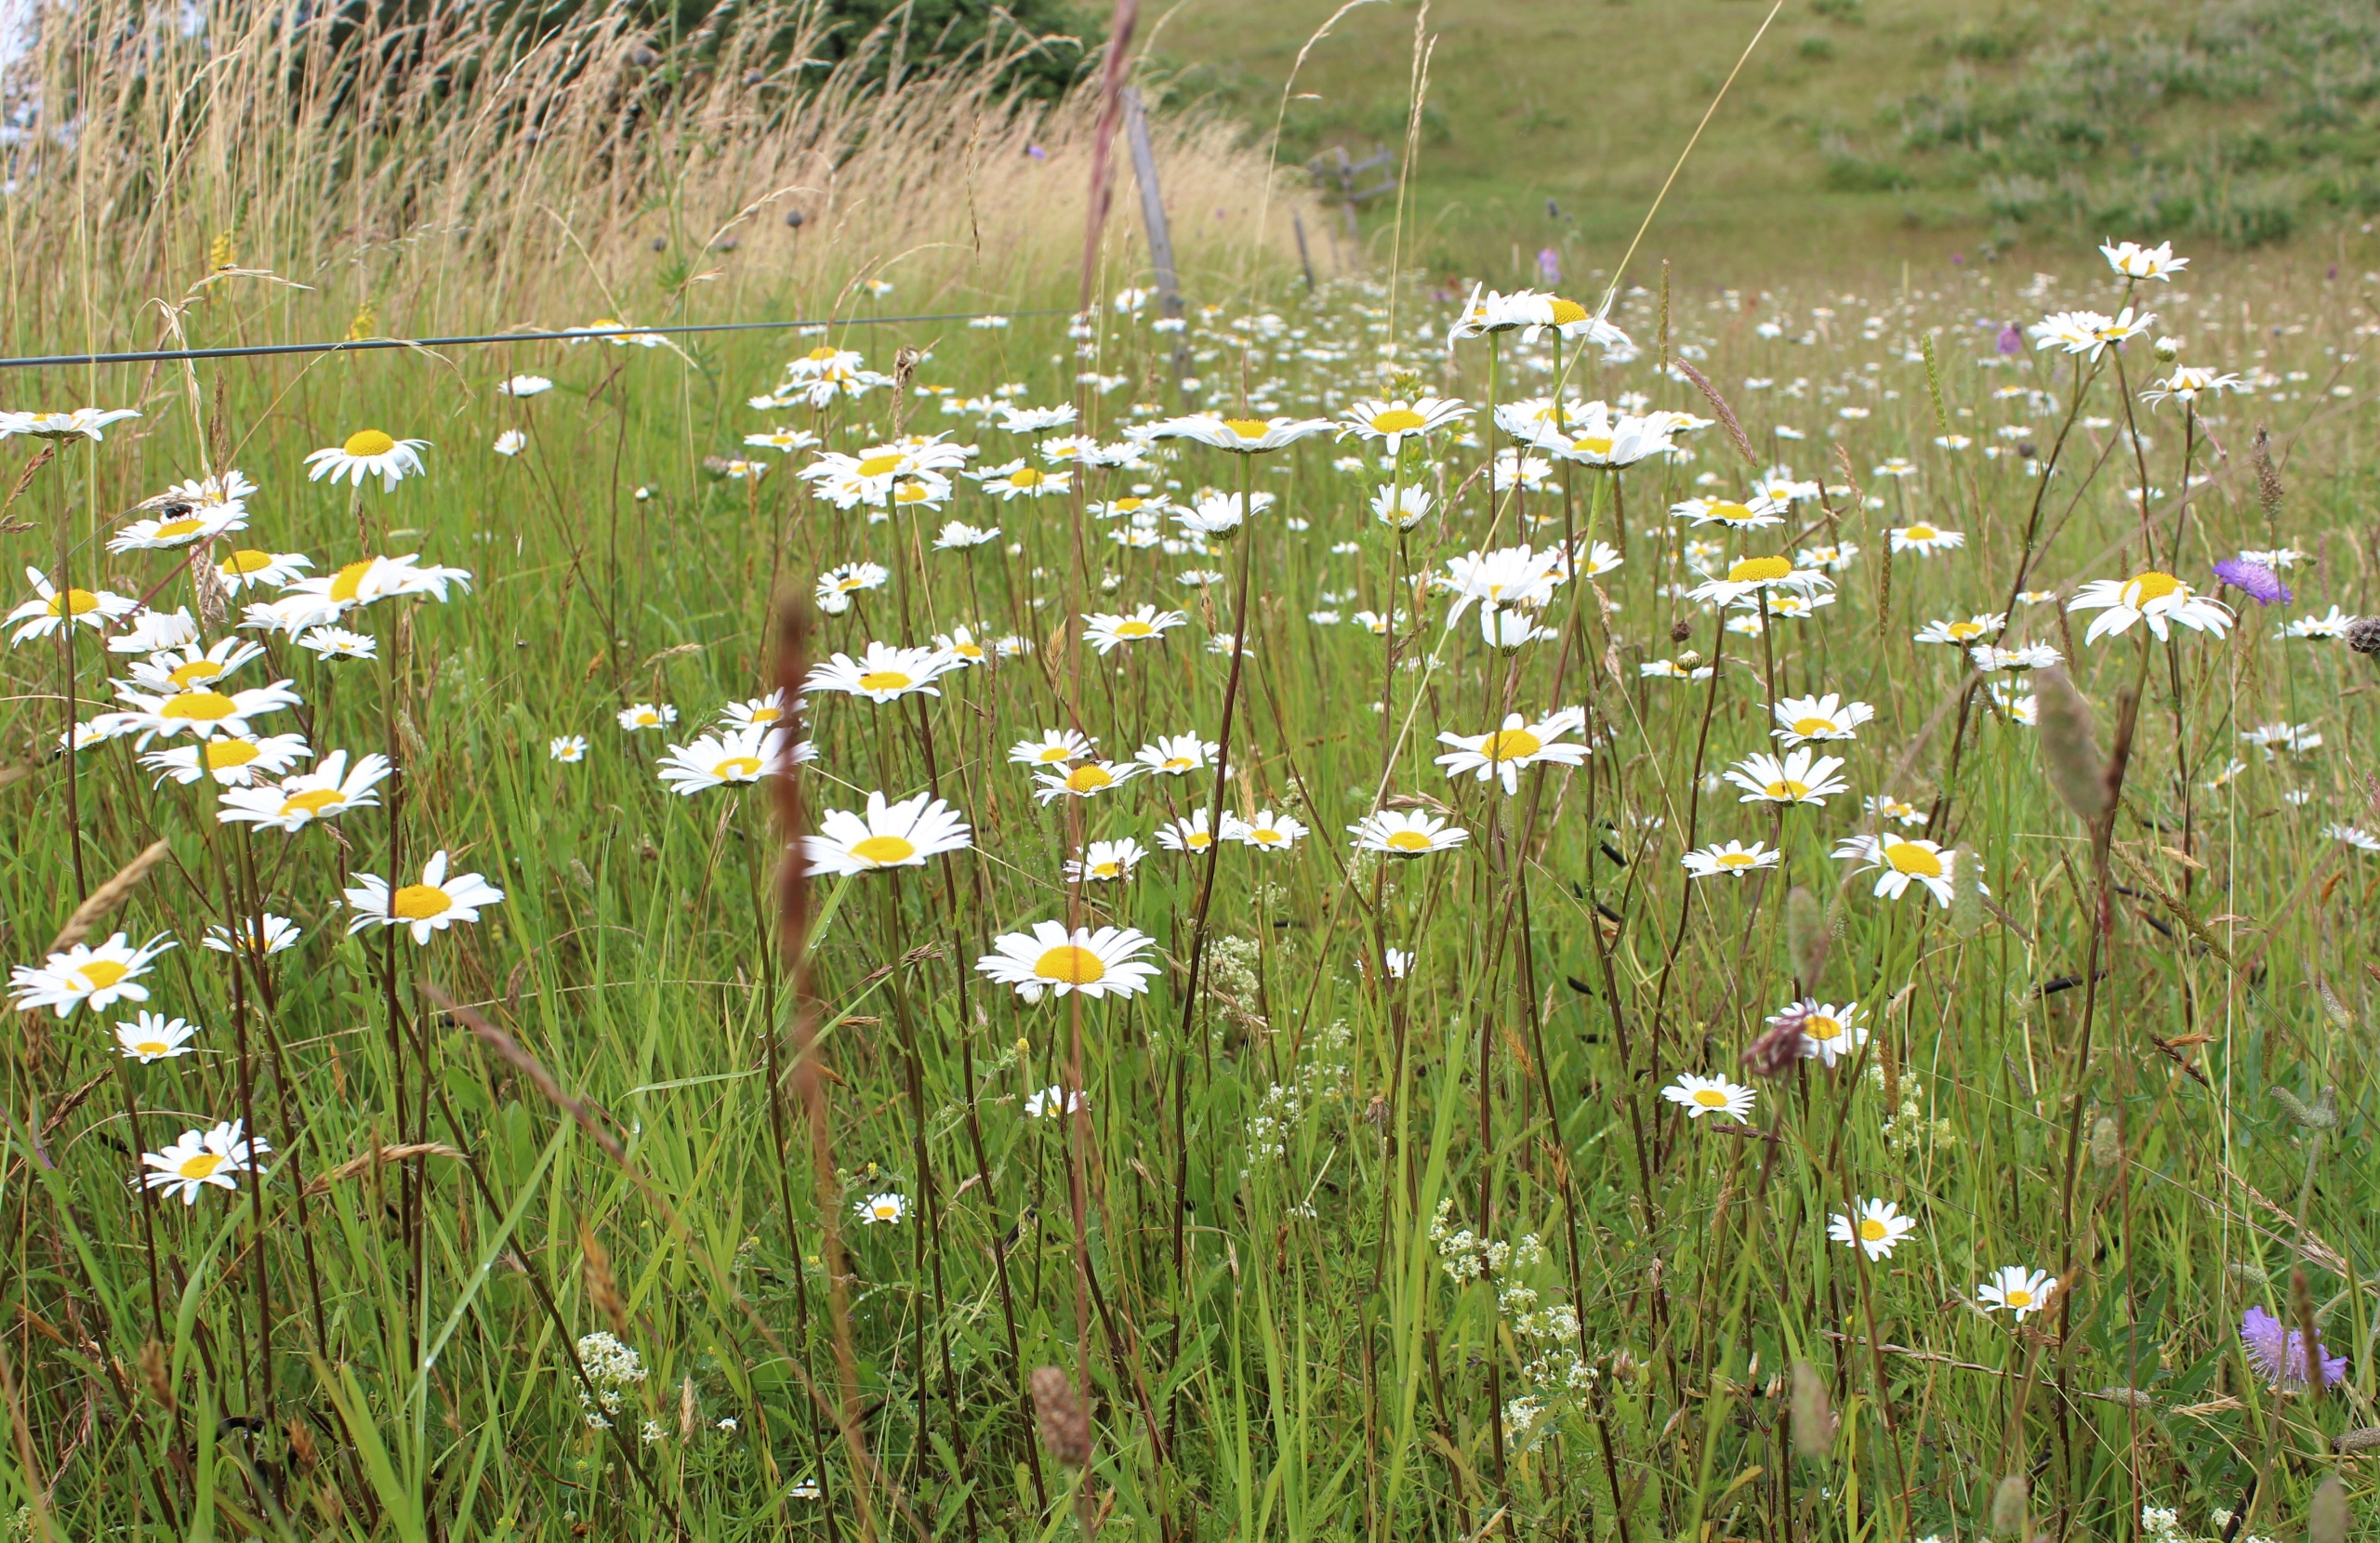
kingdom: Plantae
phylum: Tracheophyta
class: Magnoliopsida
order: Asterales
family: Asteraceae
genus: Leucanthemum
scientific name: Leucanthemum vulgare
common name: Hvid okseøje
